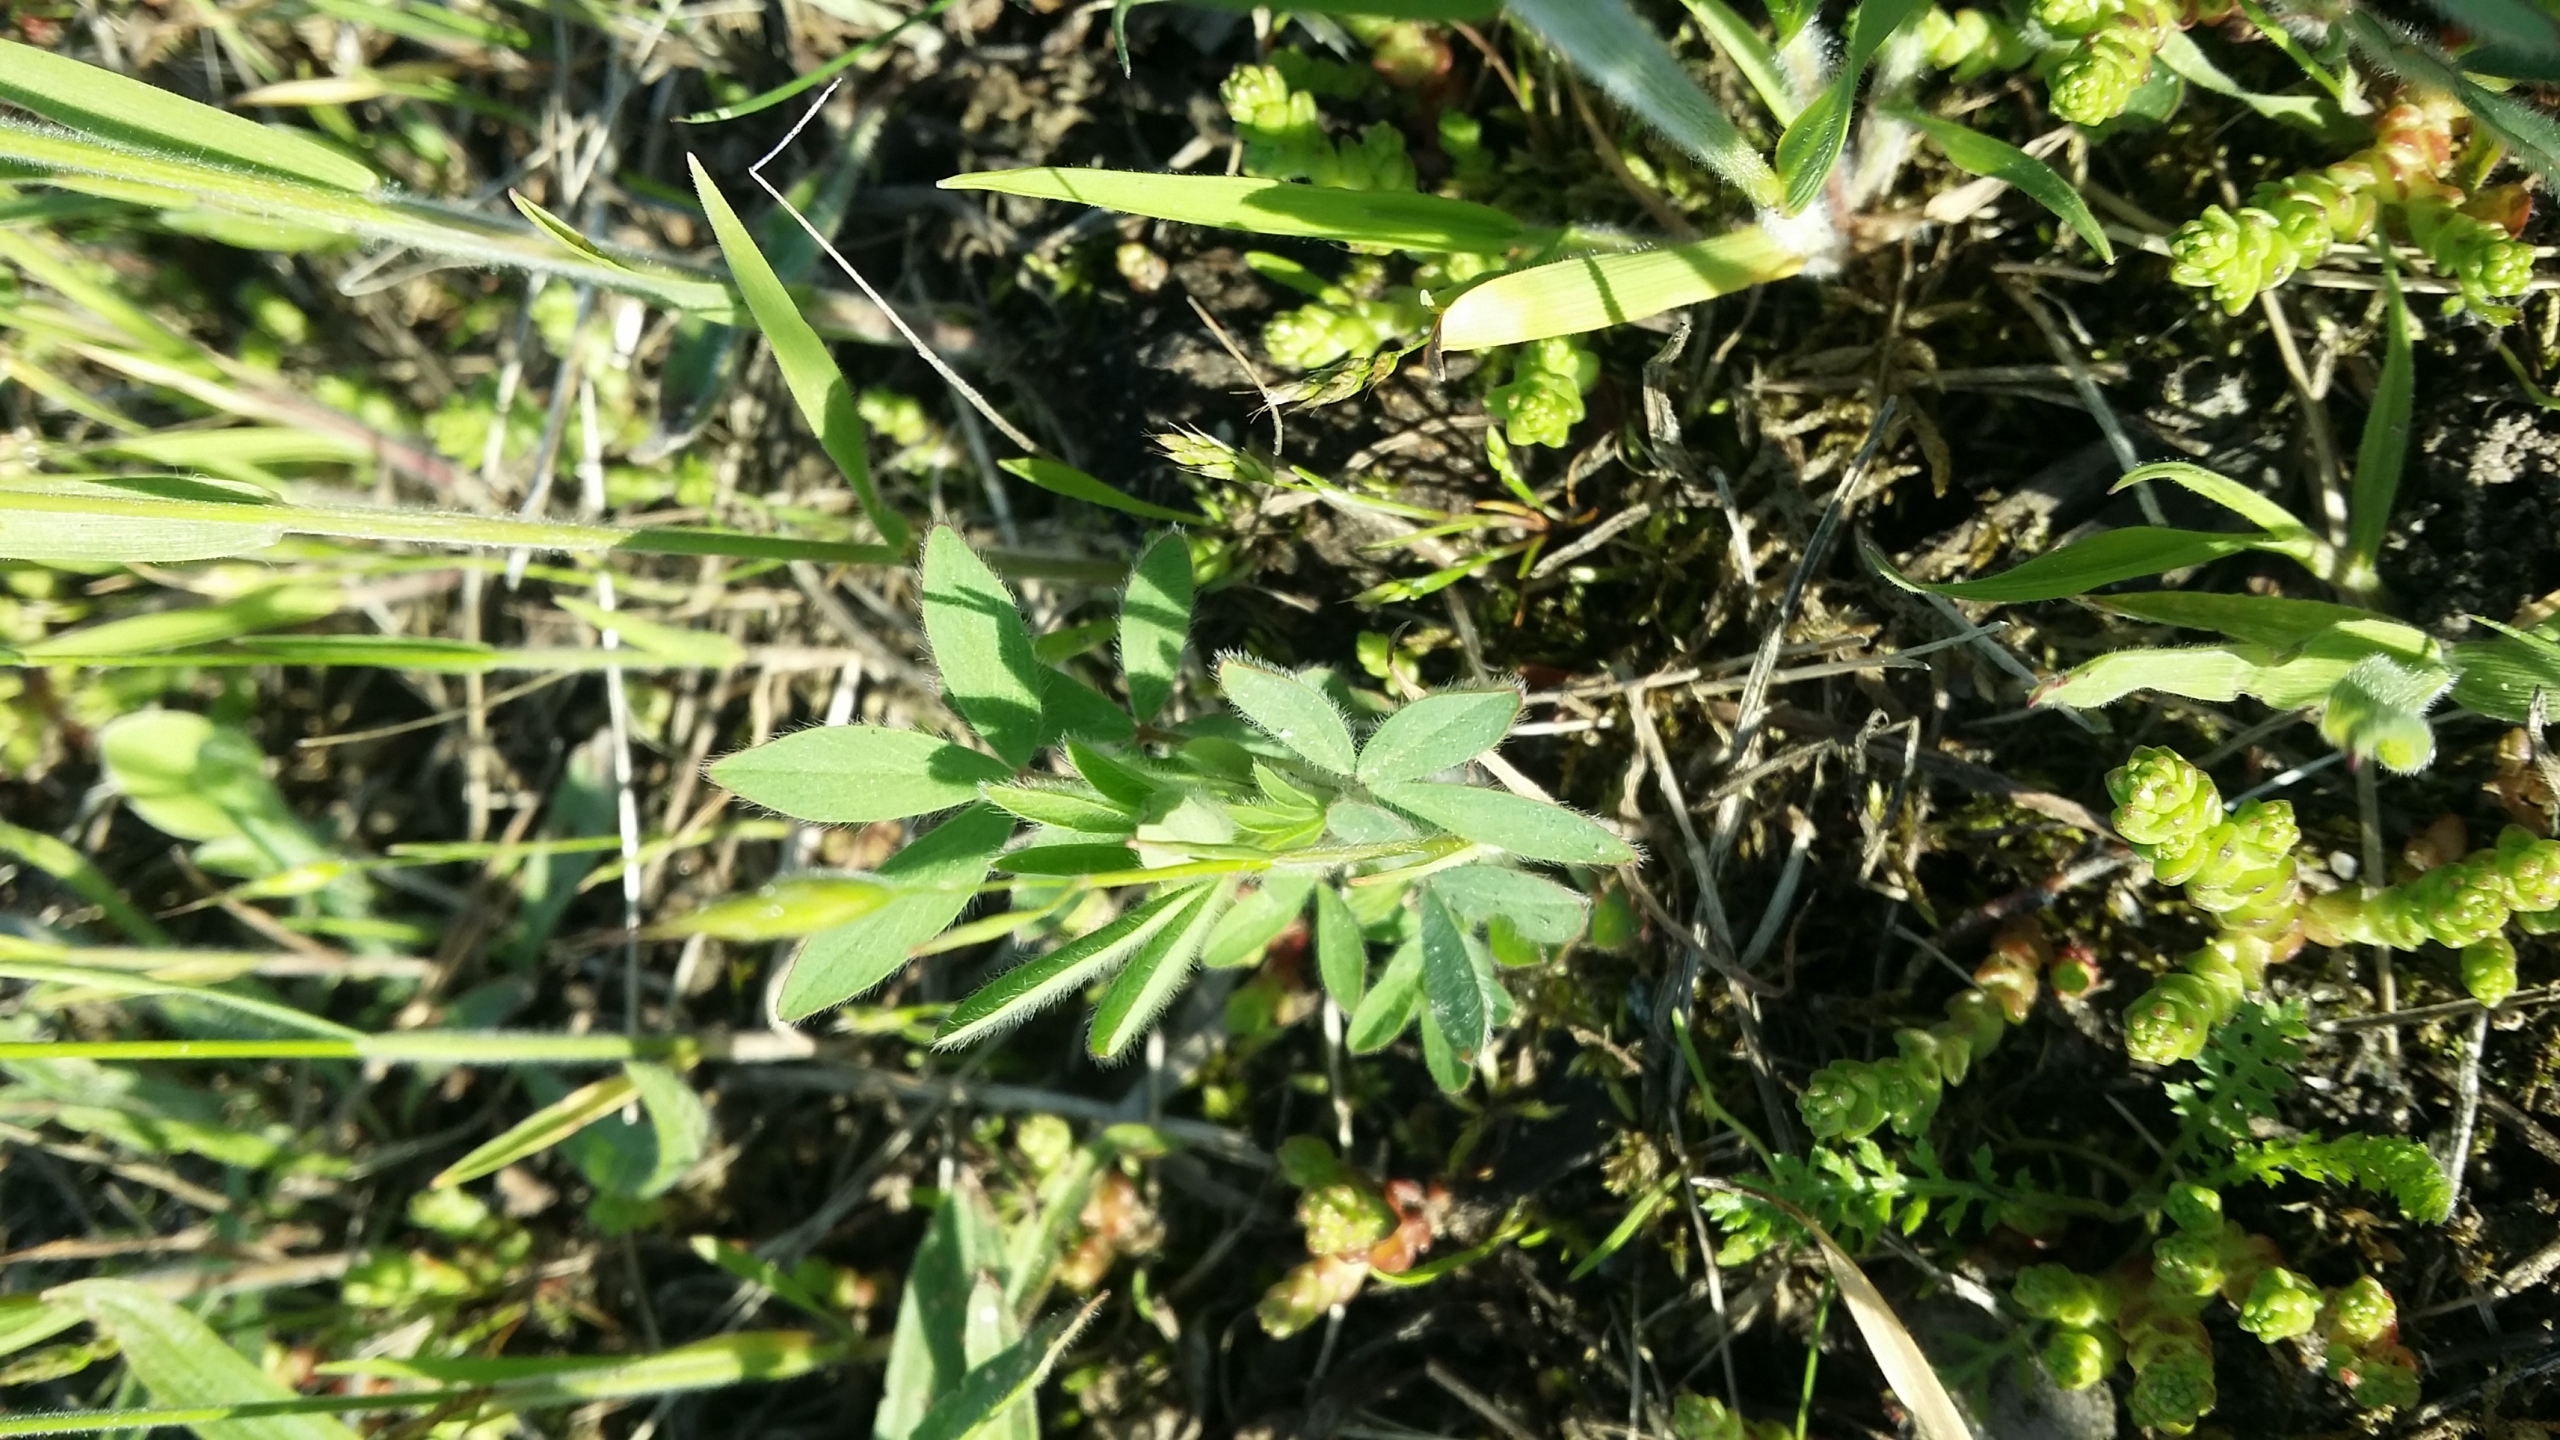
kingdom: Plantae
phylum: Tracheophyta
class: Magnoliopsida
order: Fabales
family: Fabaceae
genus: Trifolium
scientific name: Trifolium arvense
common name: Hare-kløver
